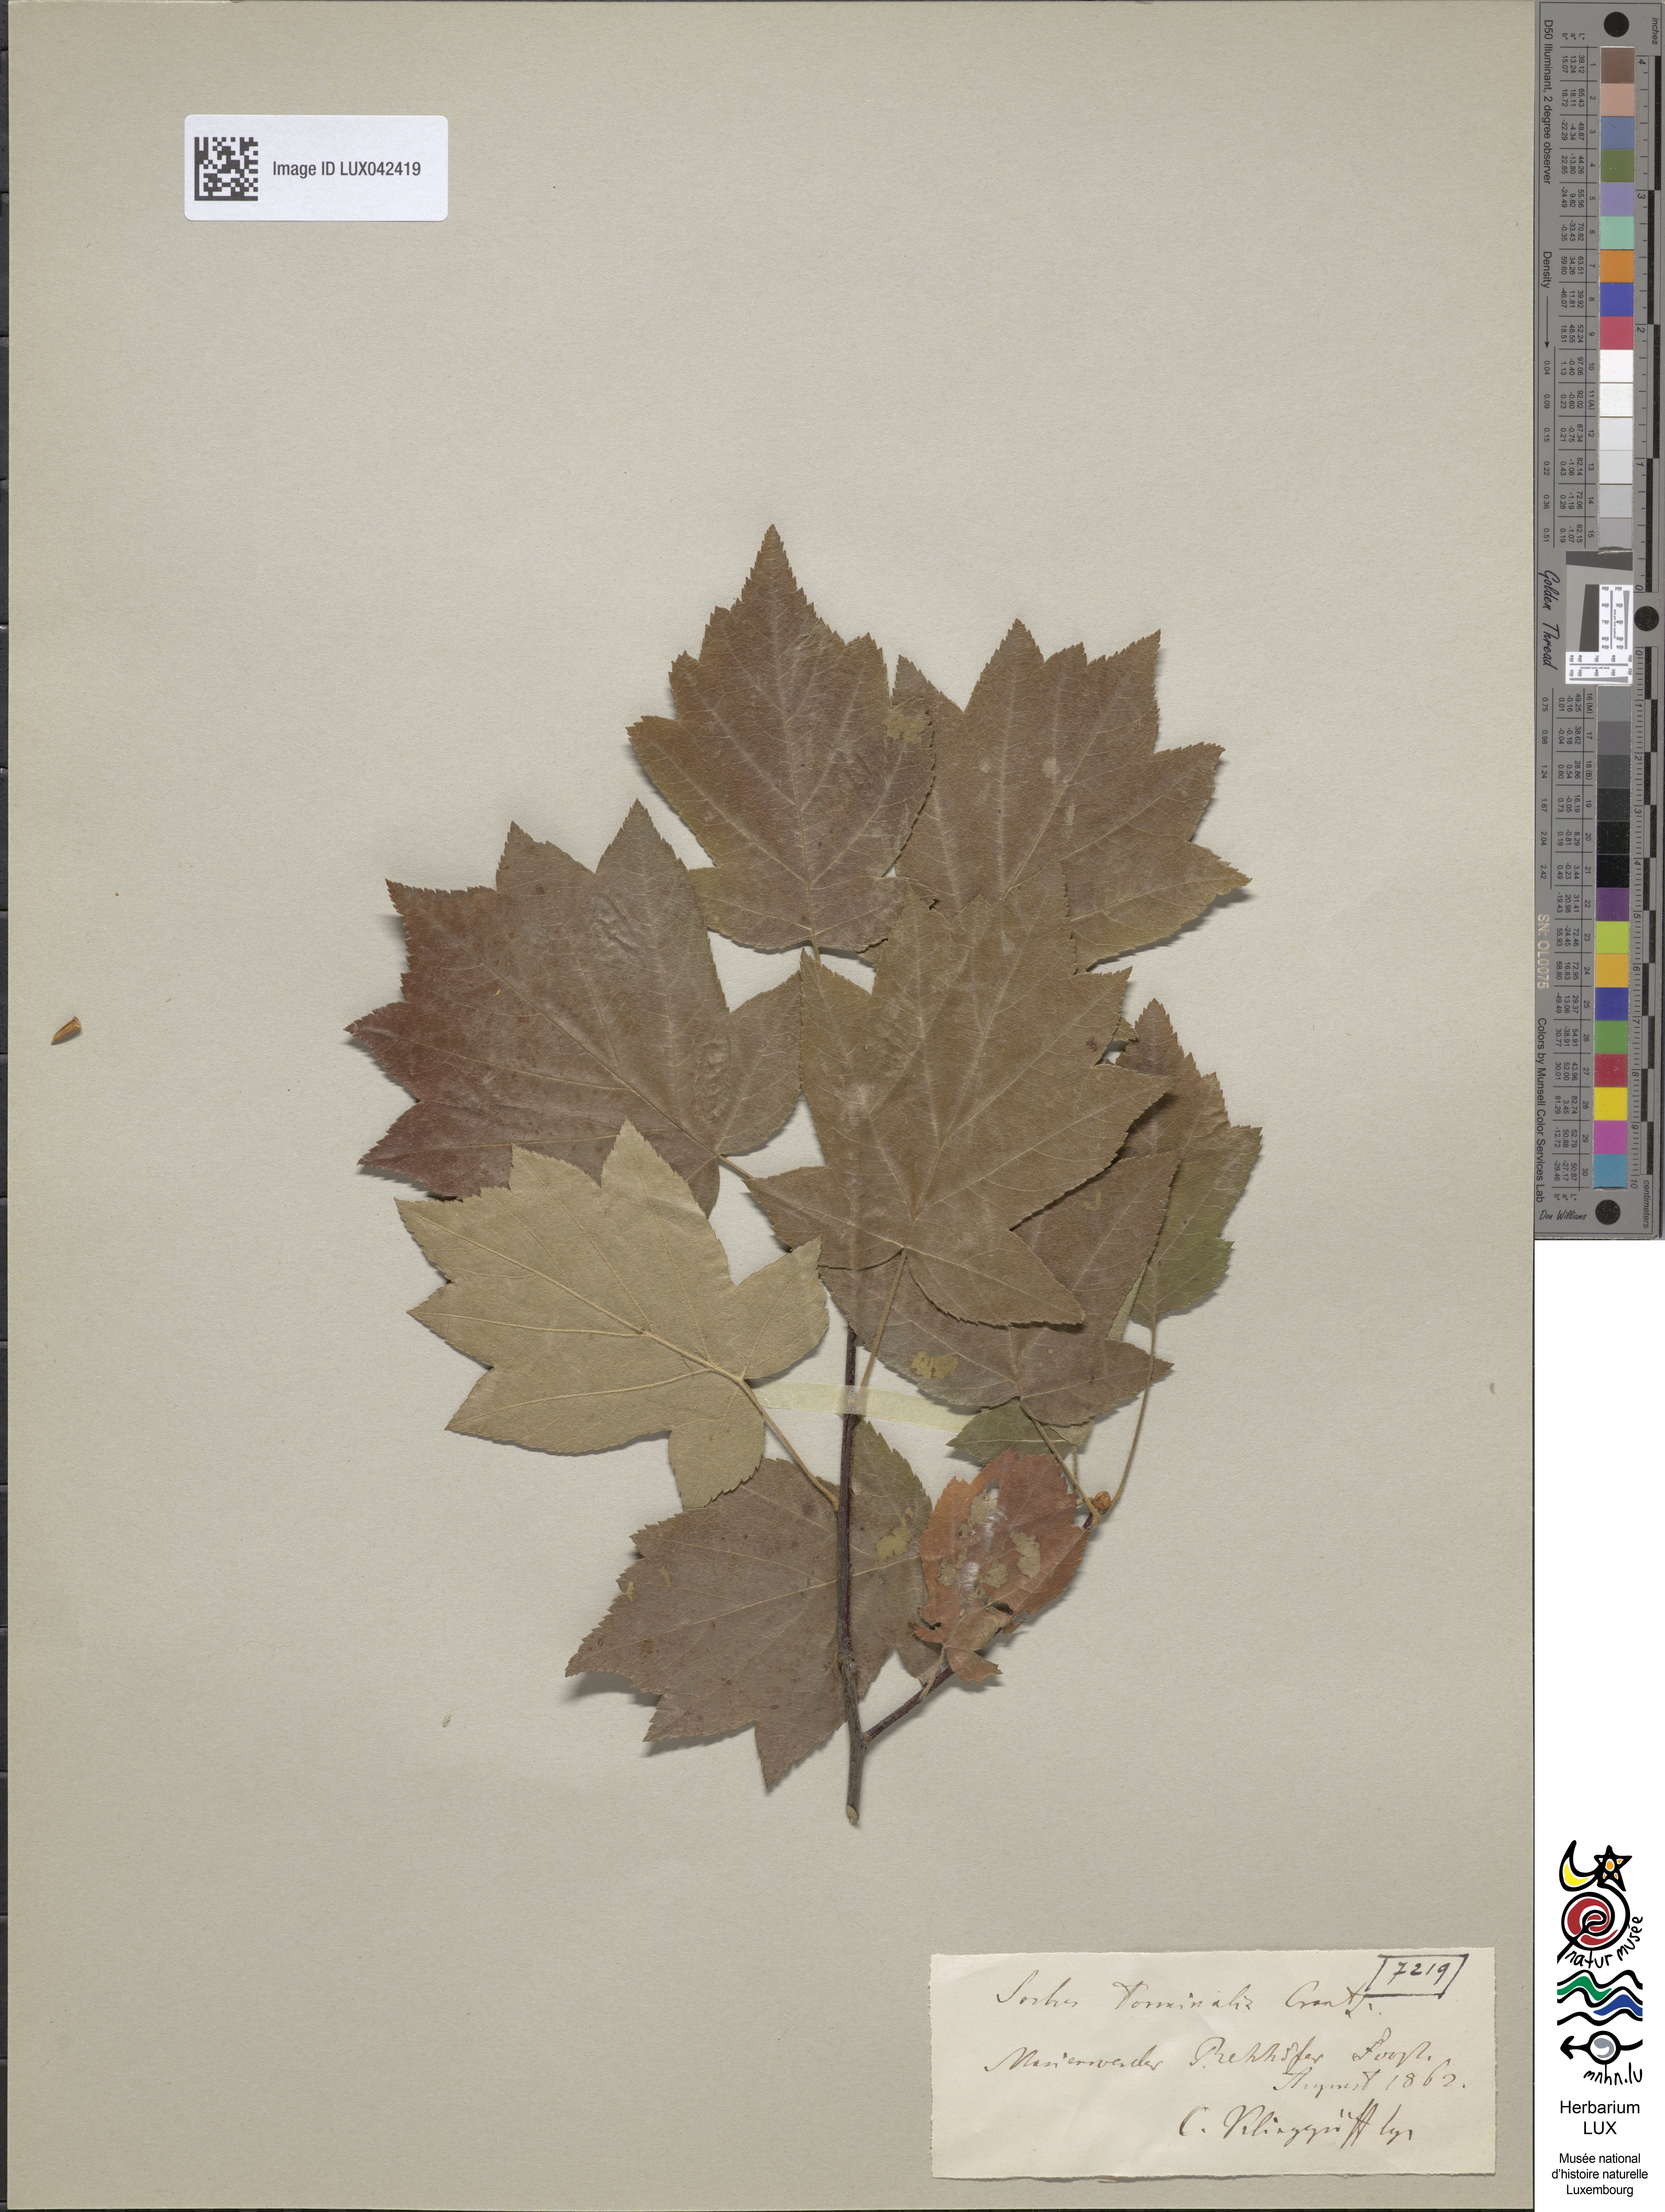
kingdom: Plantae
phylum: Tracheophyta
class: Magnoliopsida
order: Rosales
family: Rosaceae
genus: Torminalis
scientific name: Torminalis glaberrima
